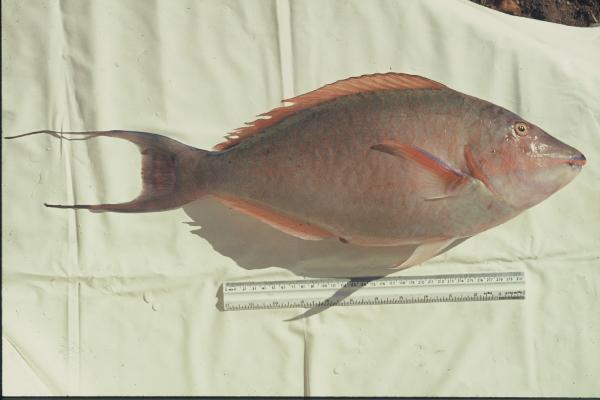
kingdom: Animalia
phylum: Chordata
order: Perciformes
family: Scaridae
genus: Hipposcarus
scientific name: Hipposcarus harid
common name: Candelamoa parrotfish
